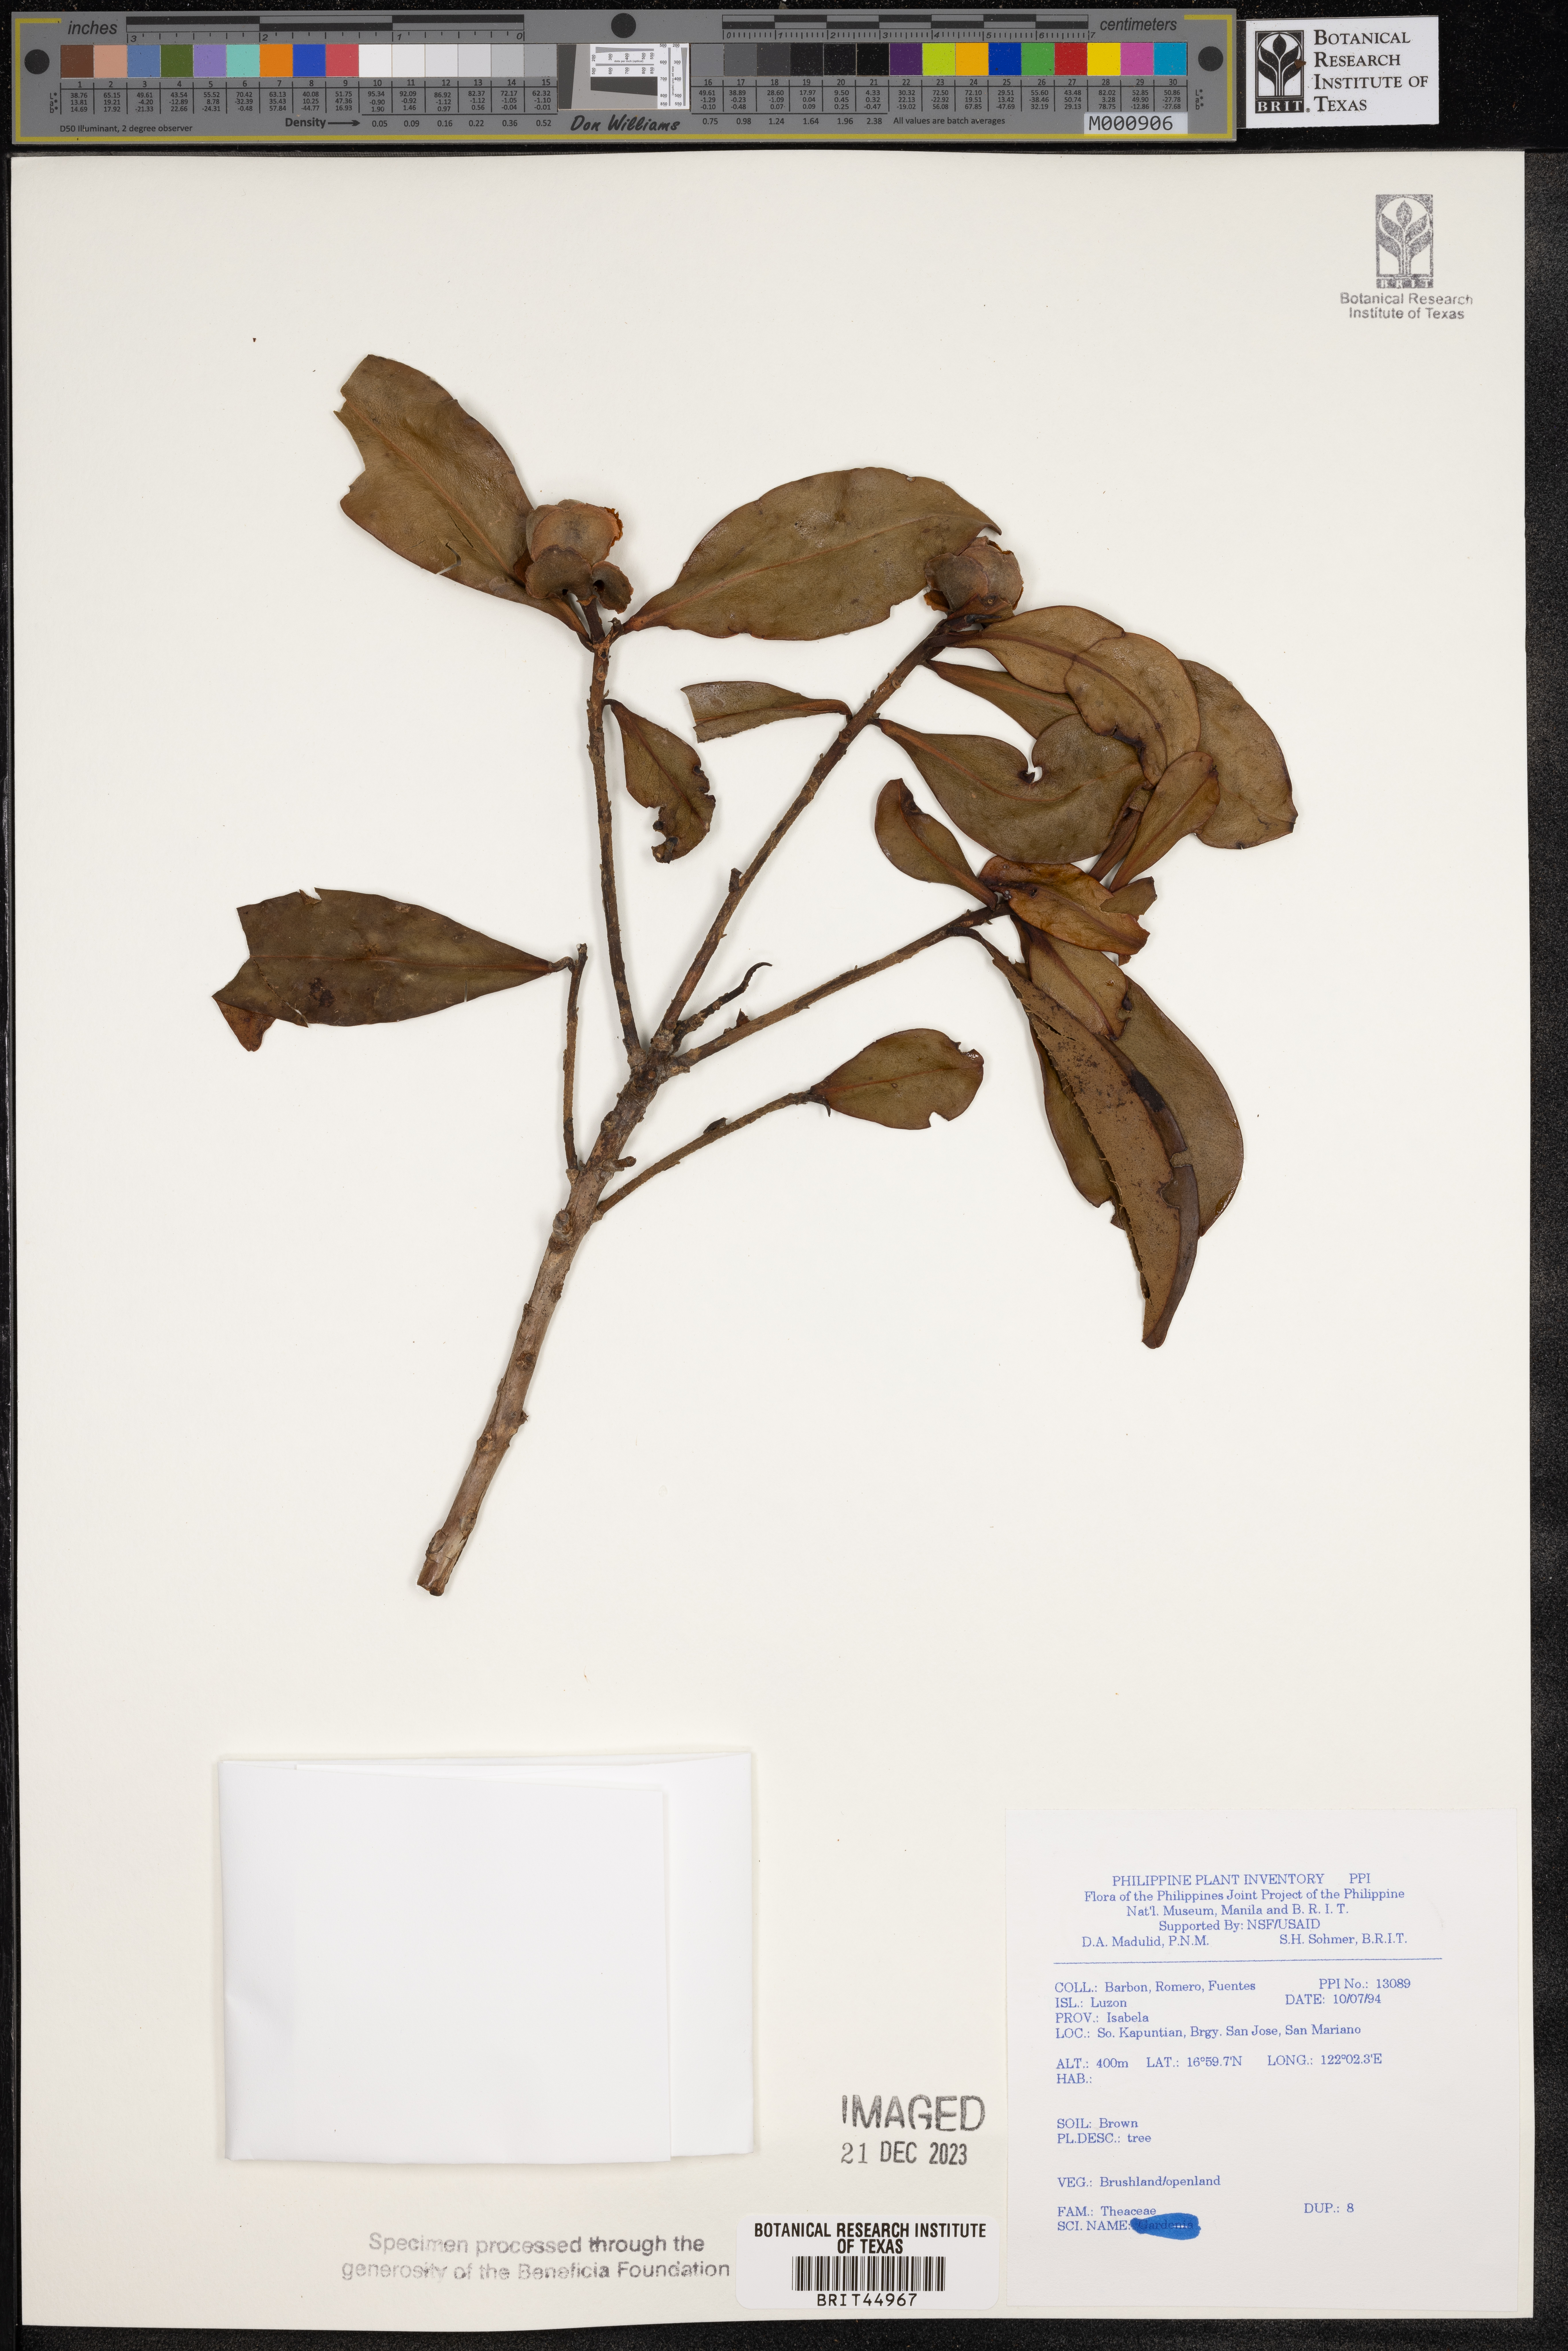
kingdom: Plantae
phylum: Tracheophyta
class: Magnoliopsida
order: Ericales
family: Theaceae
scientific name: Theaceae
